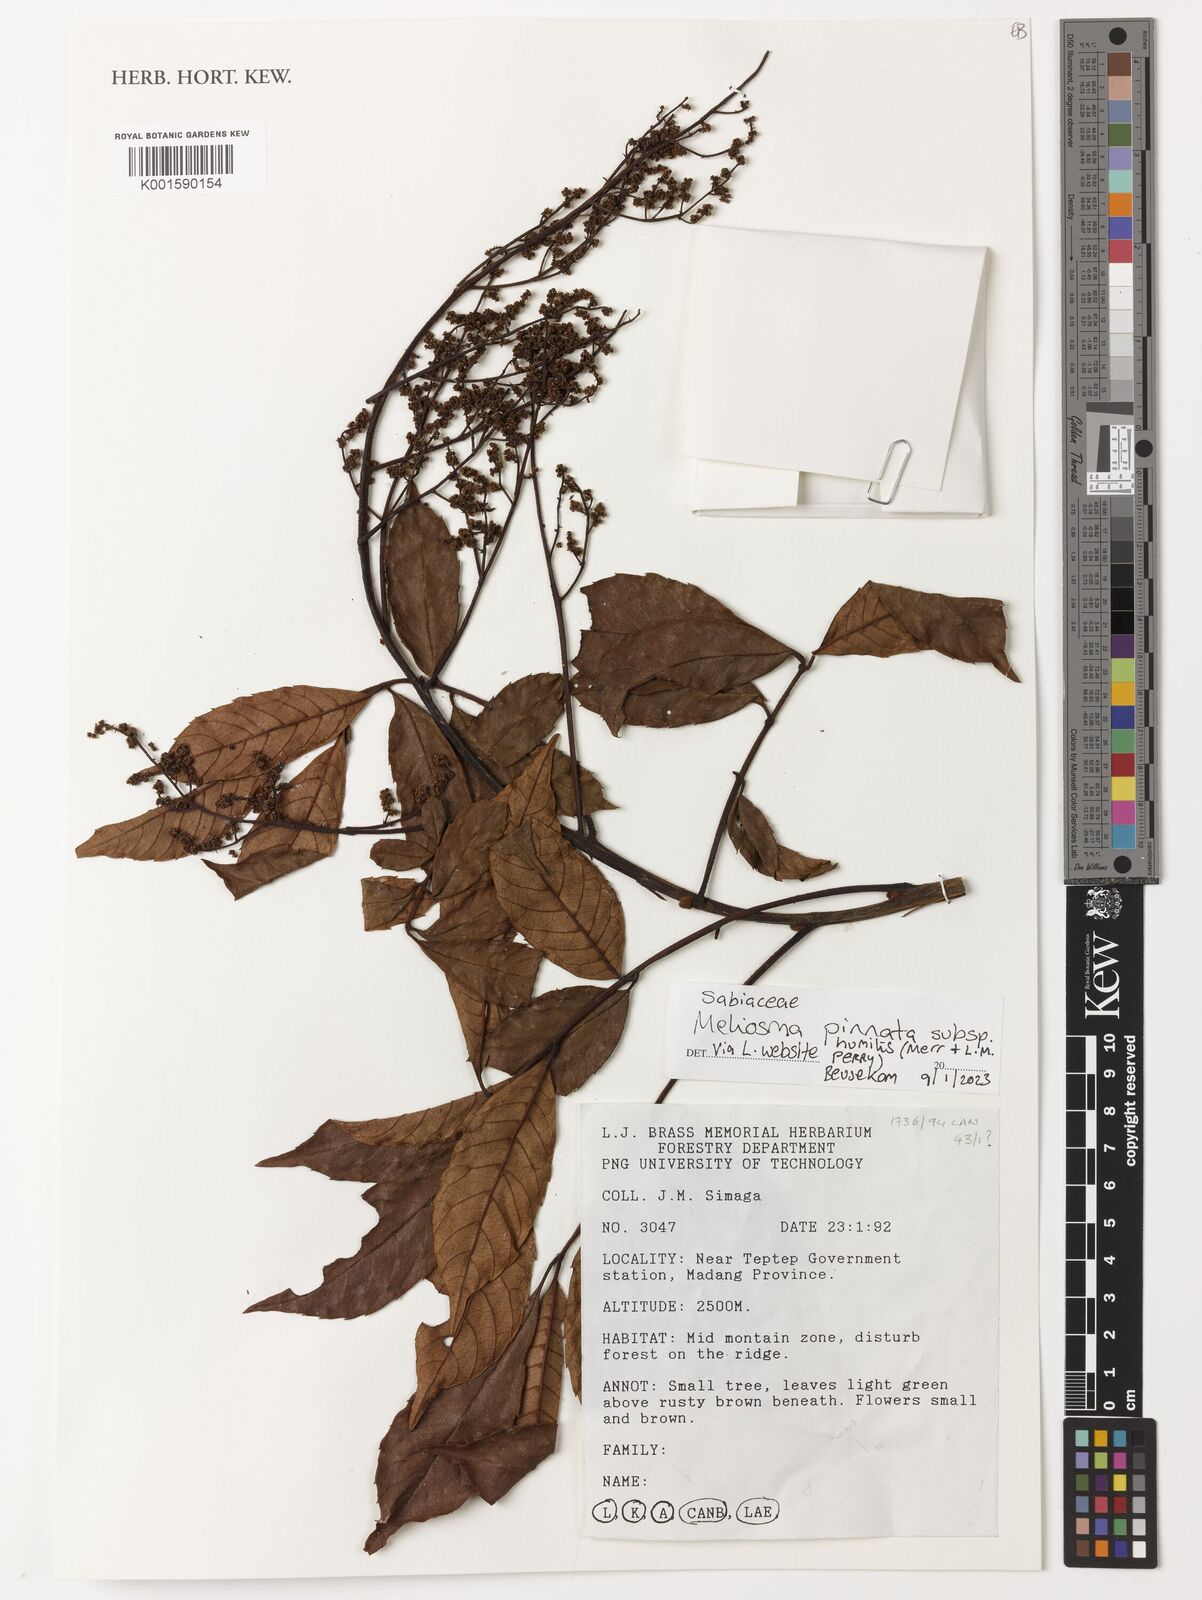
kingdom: Plantae
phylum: Tracheophyta
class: Magnoliopsida
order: Proteales
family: Sabiaceae
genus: Meliosma
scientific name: Meliosma pinnata
